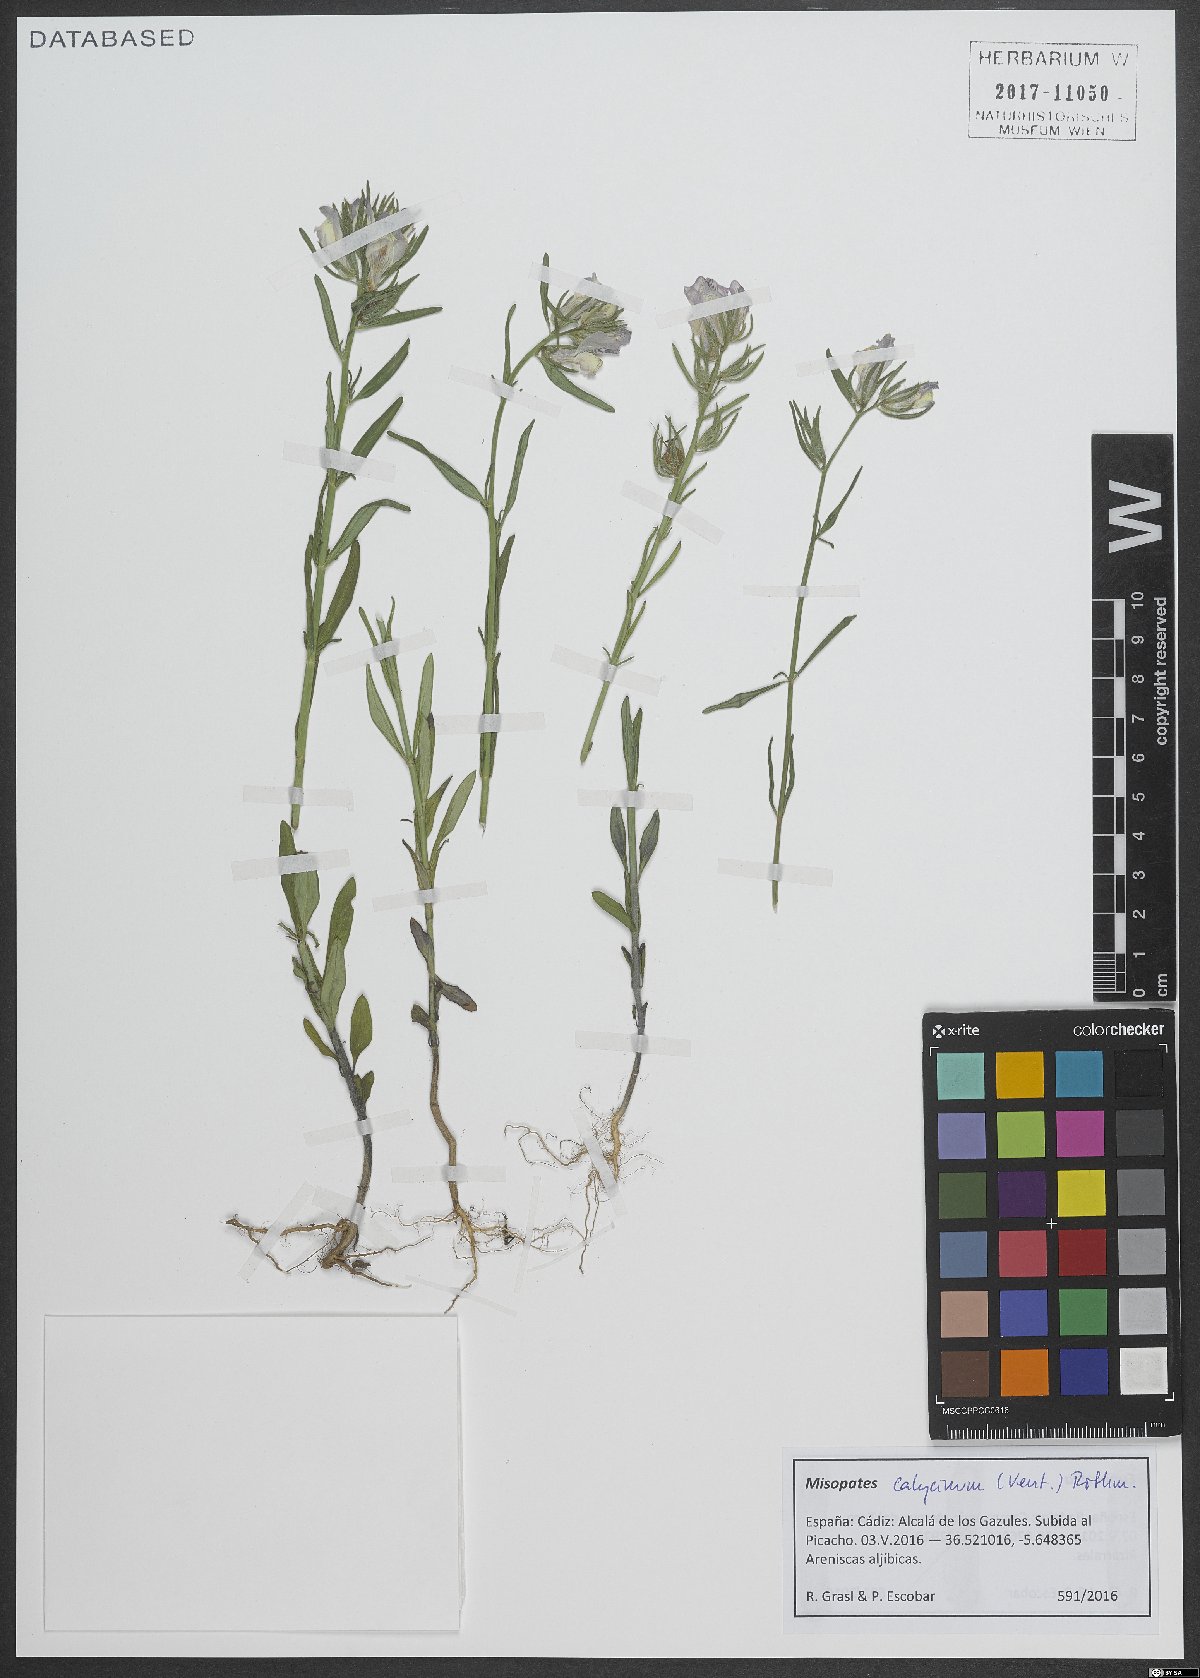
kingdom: Plantae
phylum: Tracheophyta
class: Magnoliopsida
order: Lamiales
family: Plantaginaceae
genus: Misopates
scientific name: Misopates calycinum
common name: Pale weasel's-snout
